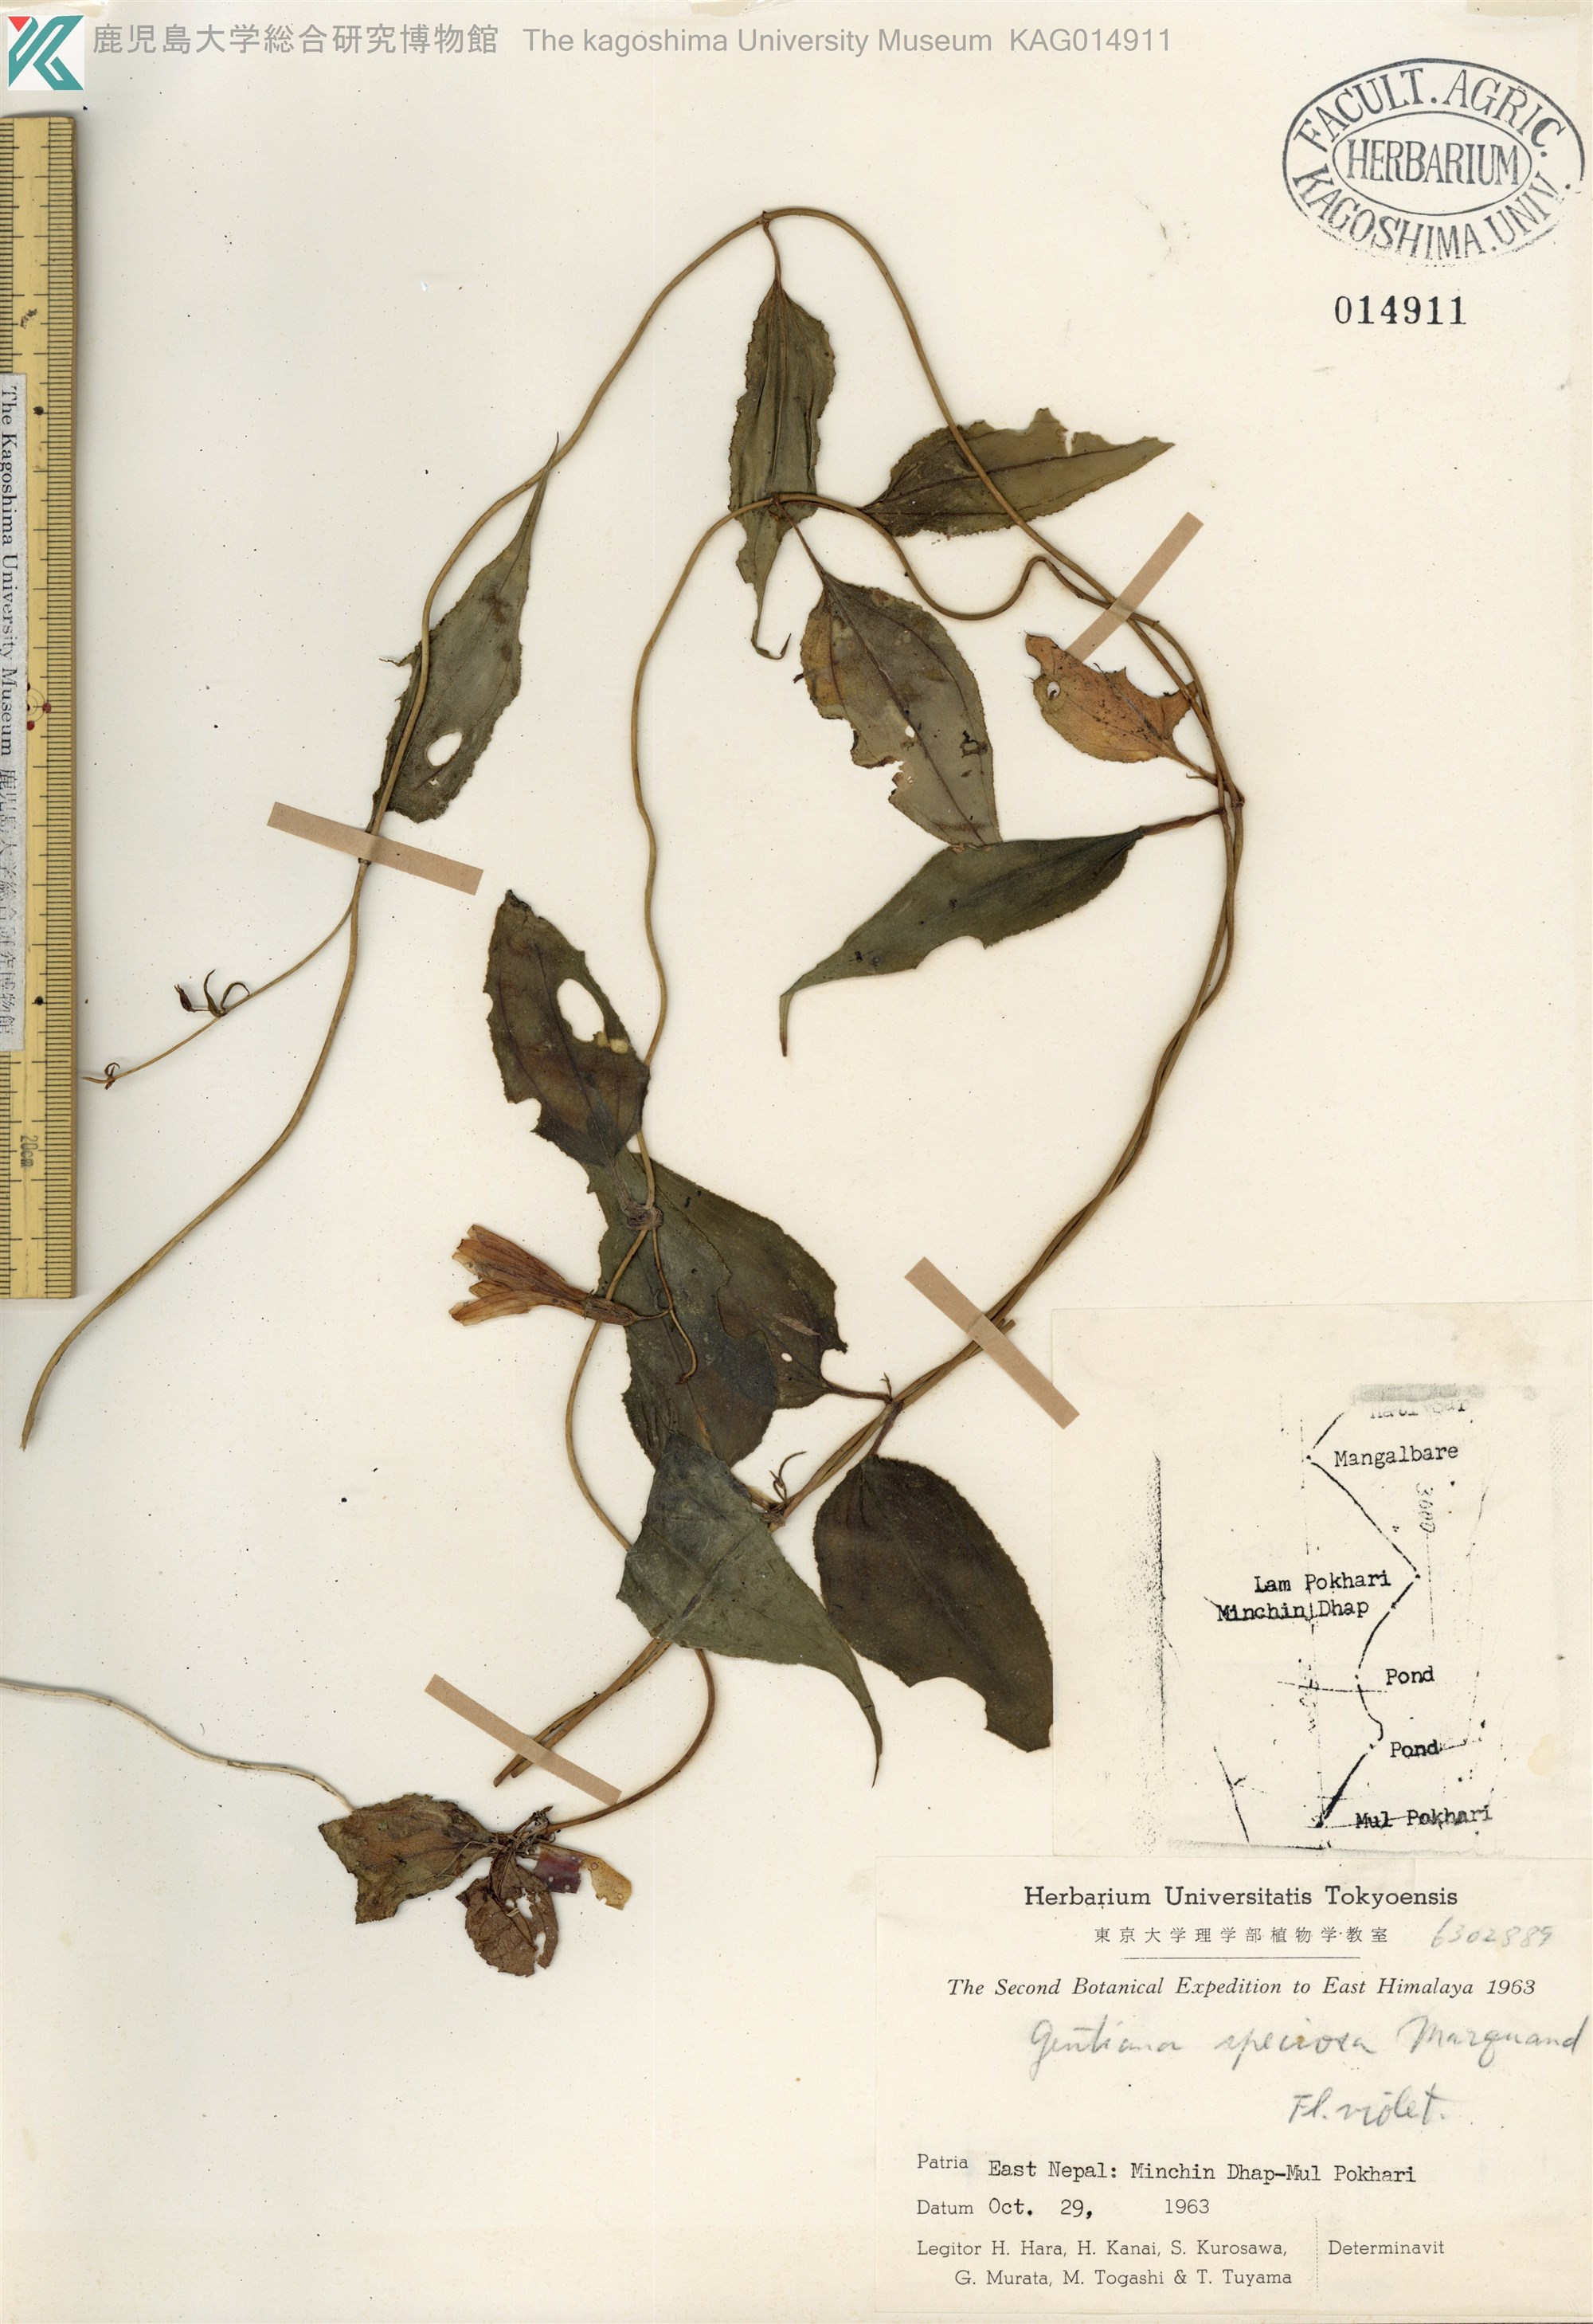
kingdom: Plantae
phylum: Tracheophyta
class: Magnoliopsida
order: Gentianales
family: Gentianaceae
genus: Crawfurdia
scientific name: Crawfurdia speciosa
